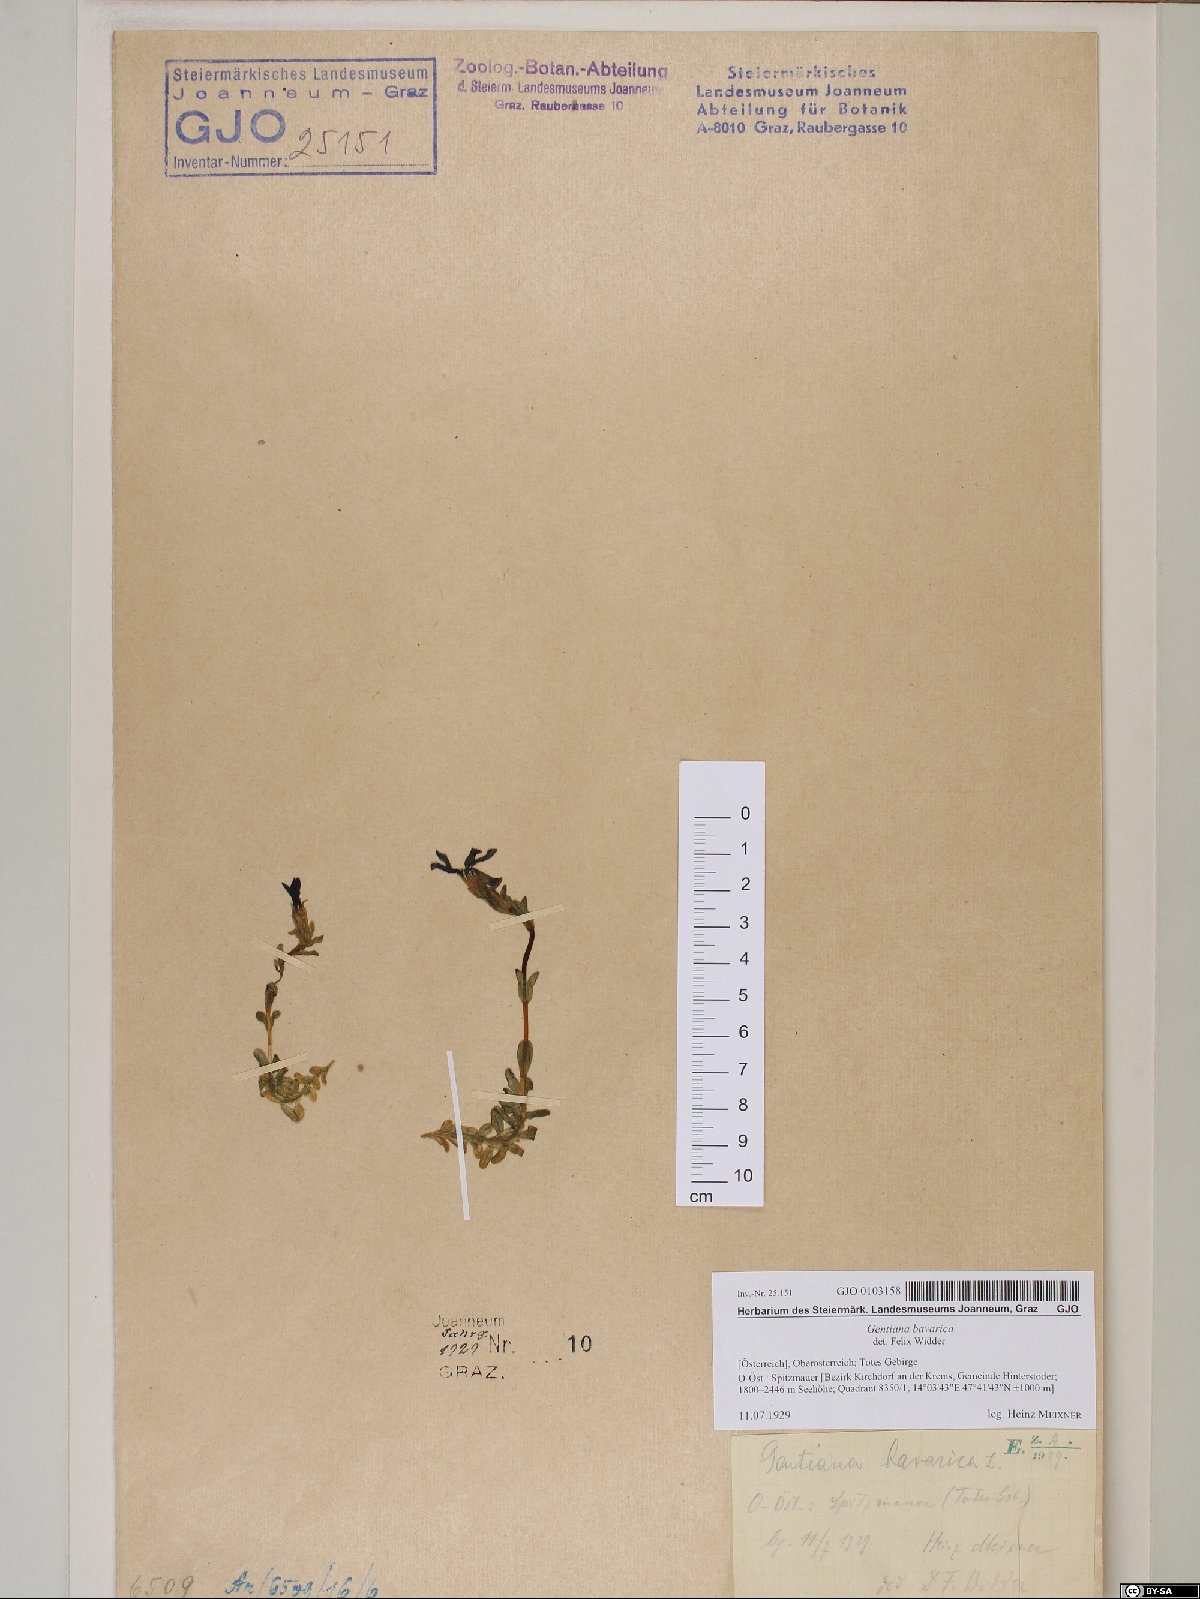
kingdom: Plantae
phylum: Tracheophyta
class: Magnoliopsida
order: Gentianales
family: Gentianaceae
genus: Gentiana
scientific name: Gentiana bavarica
